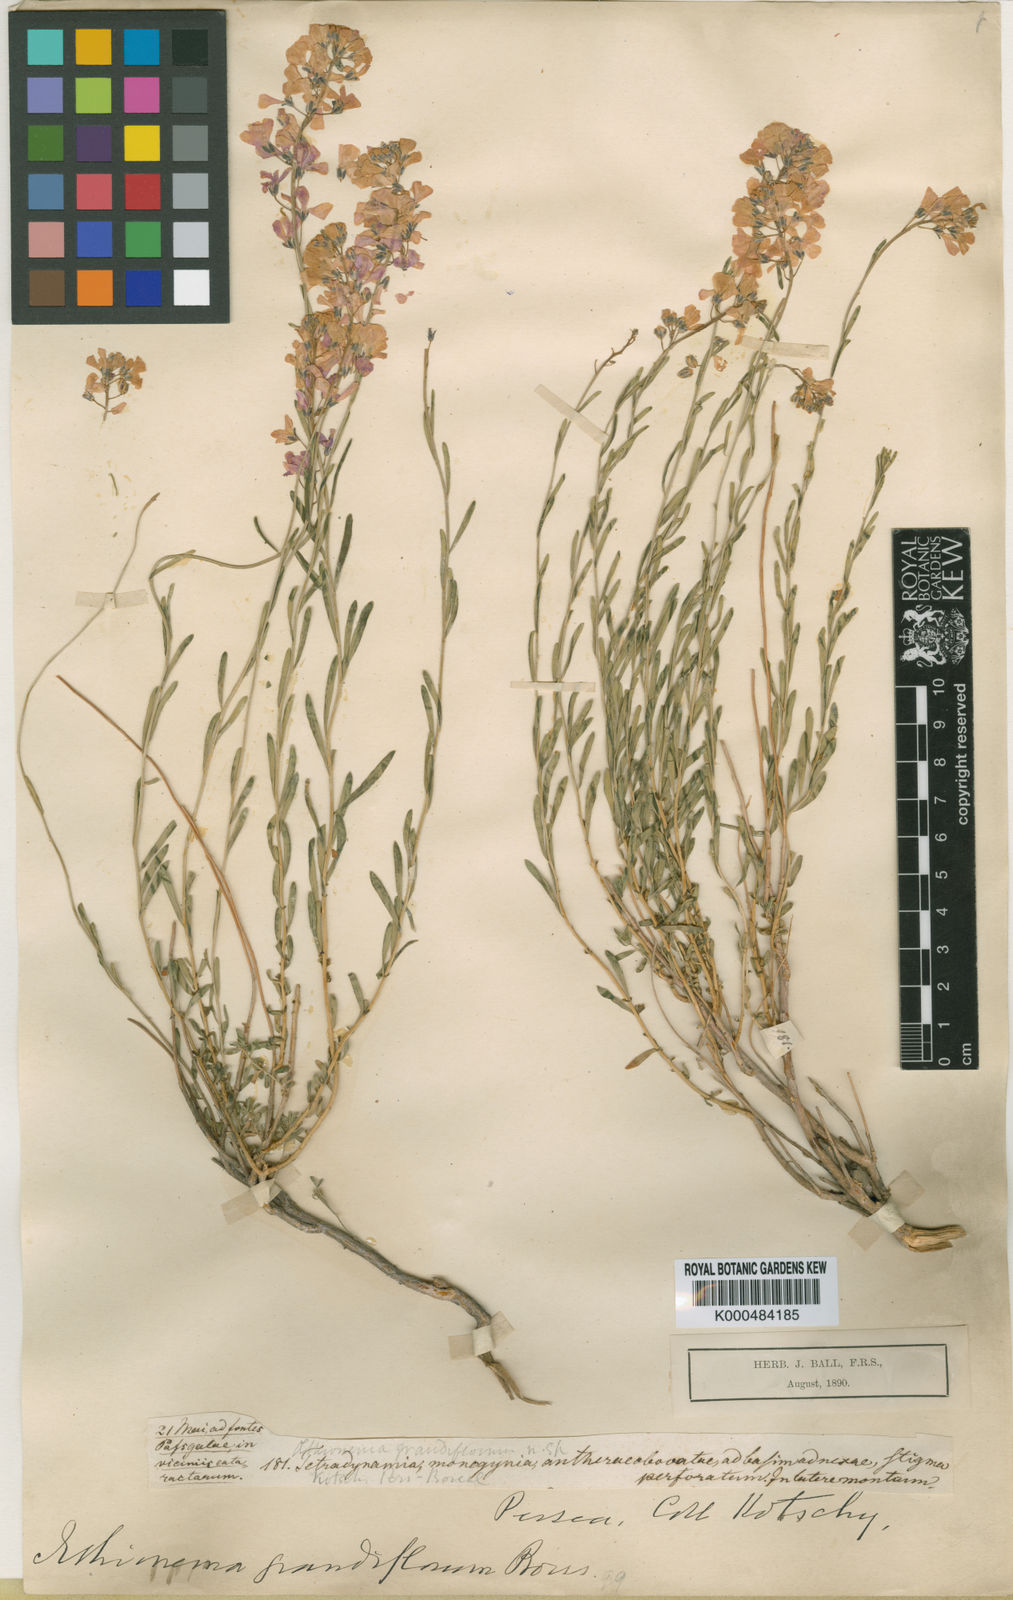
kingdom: Plantae
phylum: Tracheophyta
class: Magnoliopsida
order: Brassicales
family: Brassicaceae
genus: Aethionema
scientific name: Aethionema grandiflorum
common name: Persian stonecress
